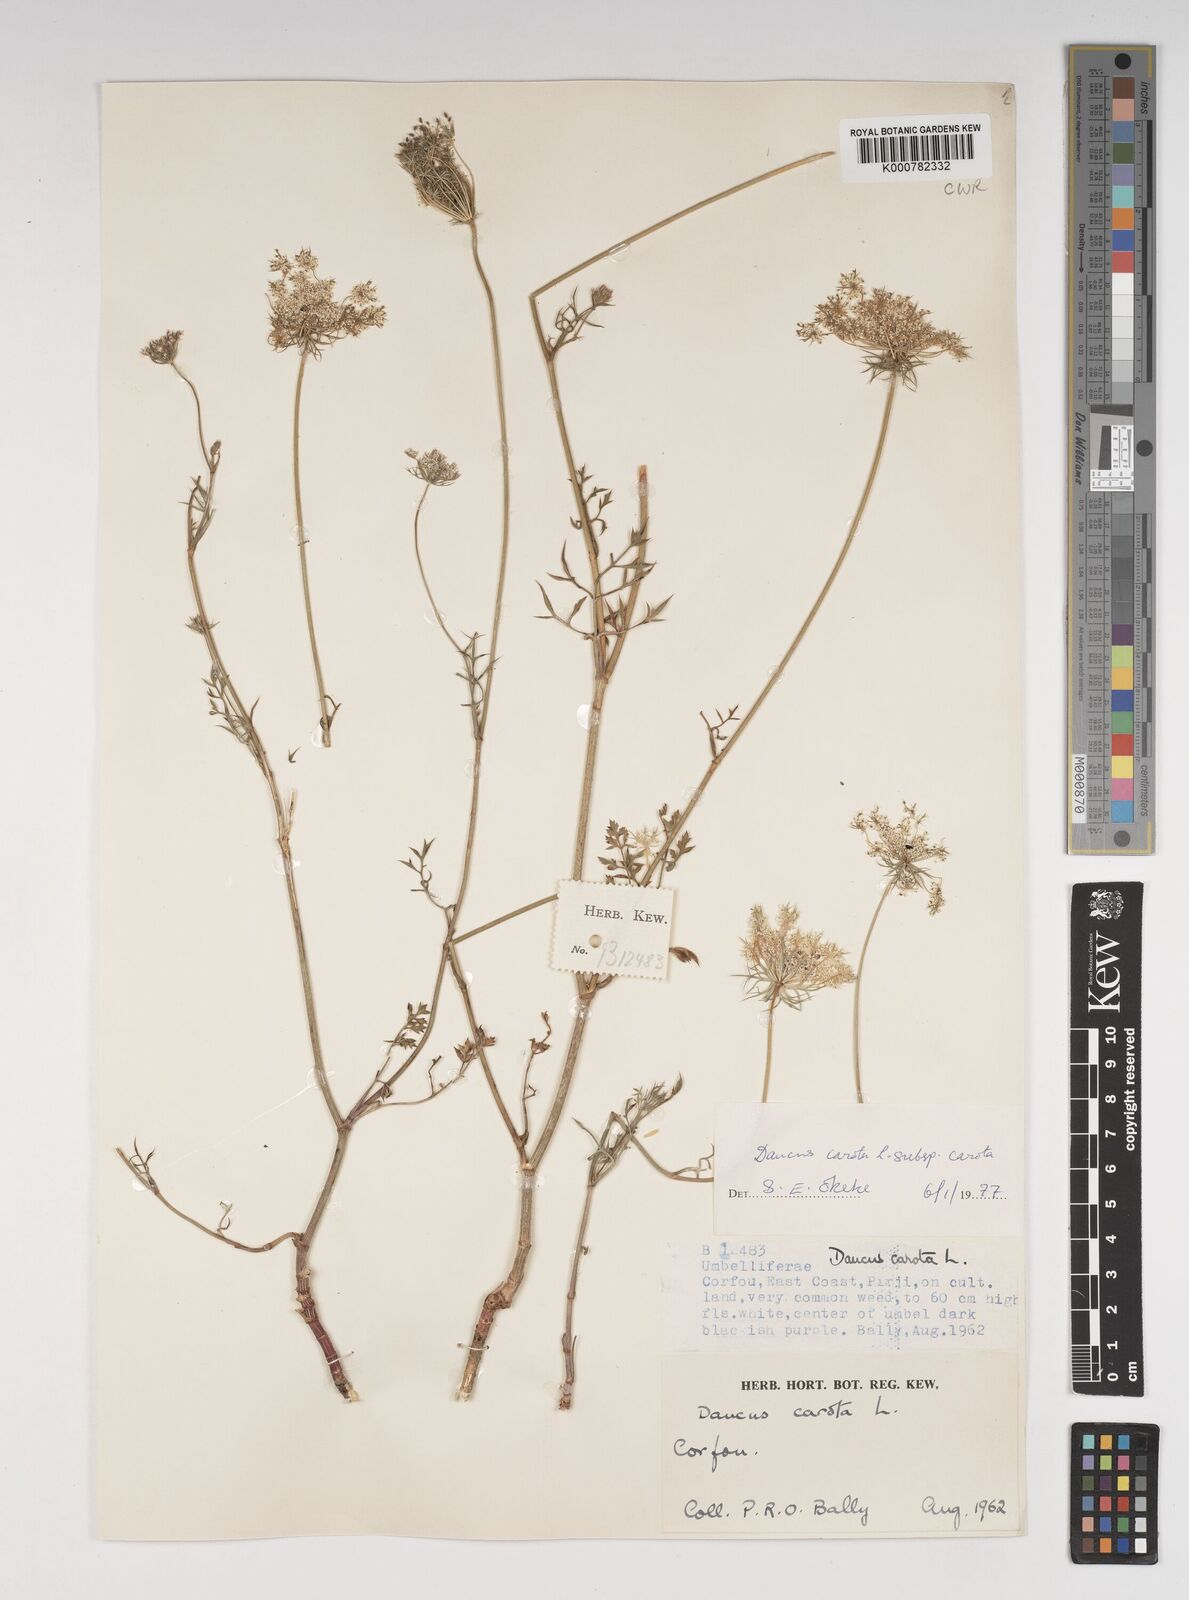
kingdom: Plantae
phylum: Tracheophyta
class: Magnoliopsida
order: Apiales
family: Apiaceae
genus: Daucus
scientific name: Daucus carota
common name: Wild carrot
